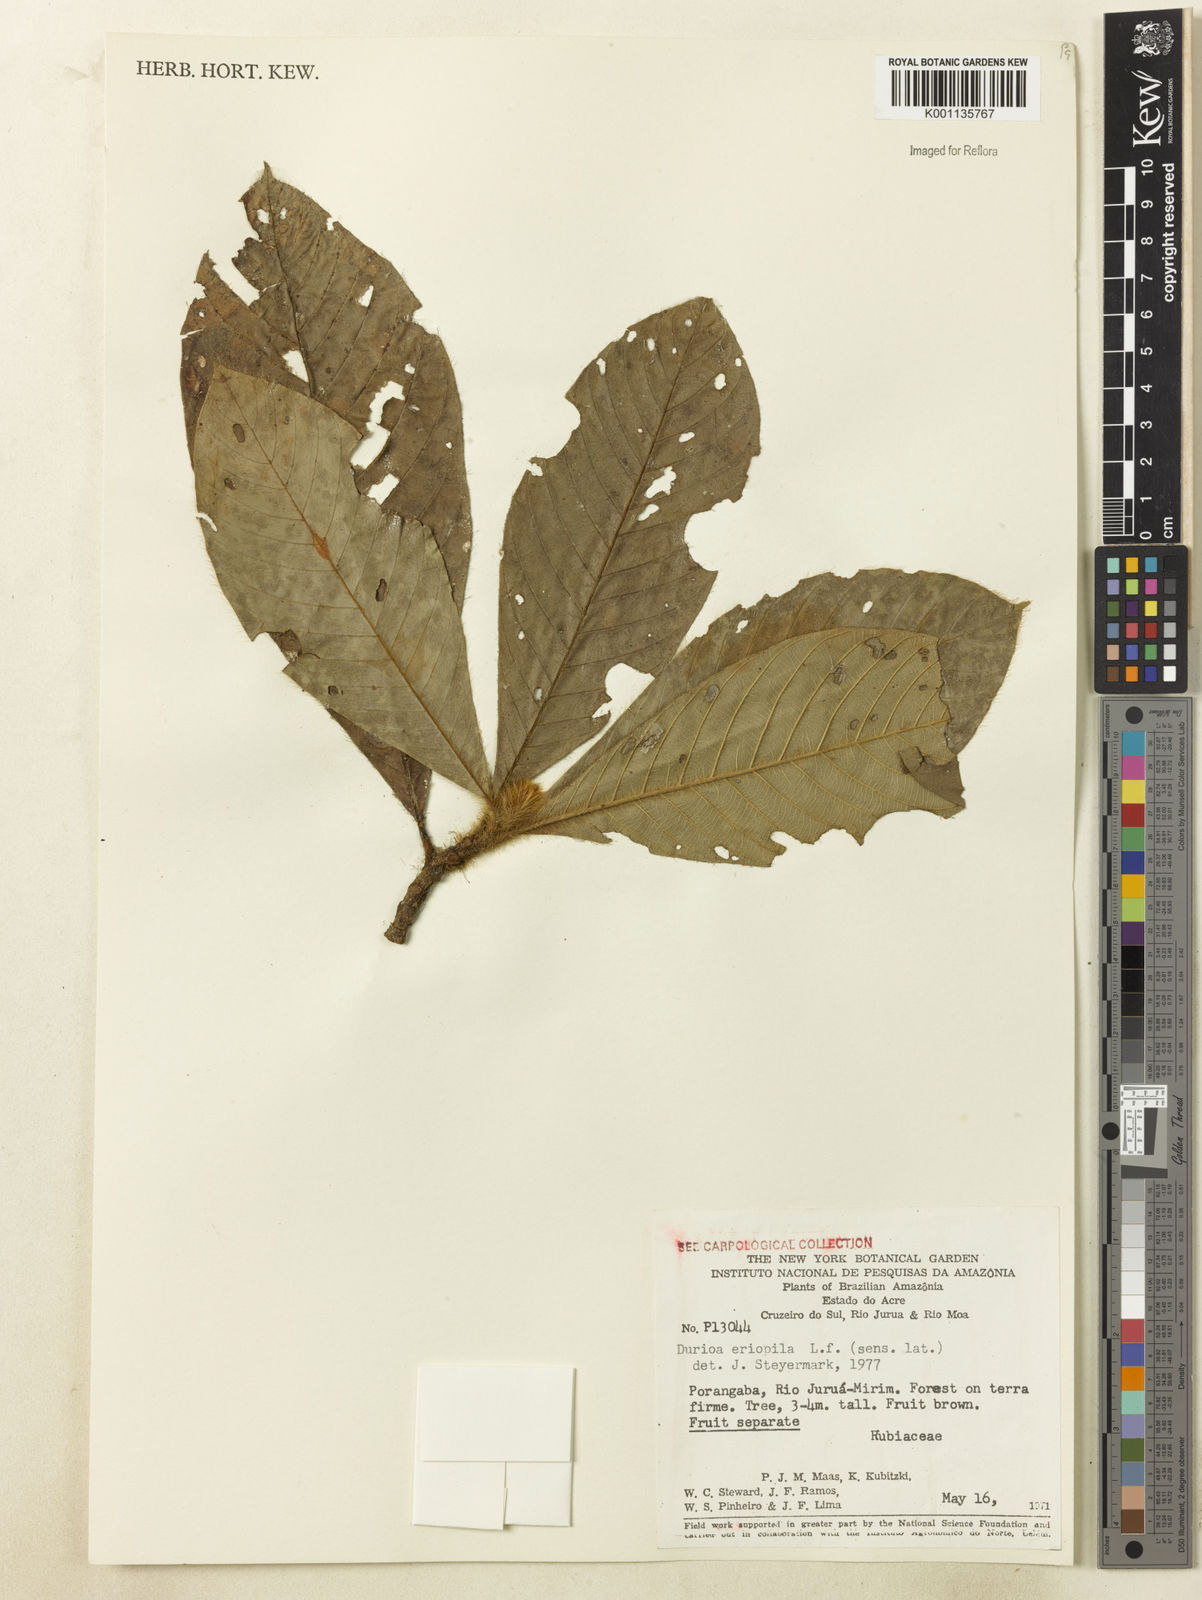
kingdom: Plantae
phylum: Tracheophyta
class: Magnoliopsida
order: Gentianales
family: Rubiaceae
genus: Duroia
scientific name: Duroia eriopila
